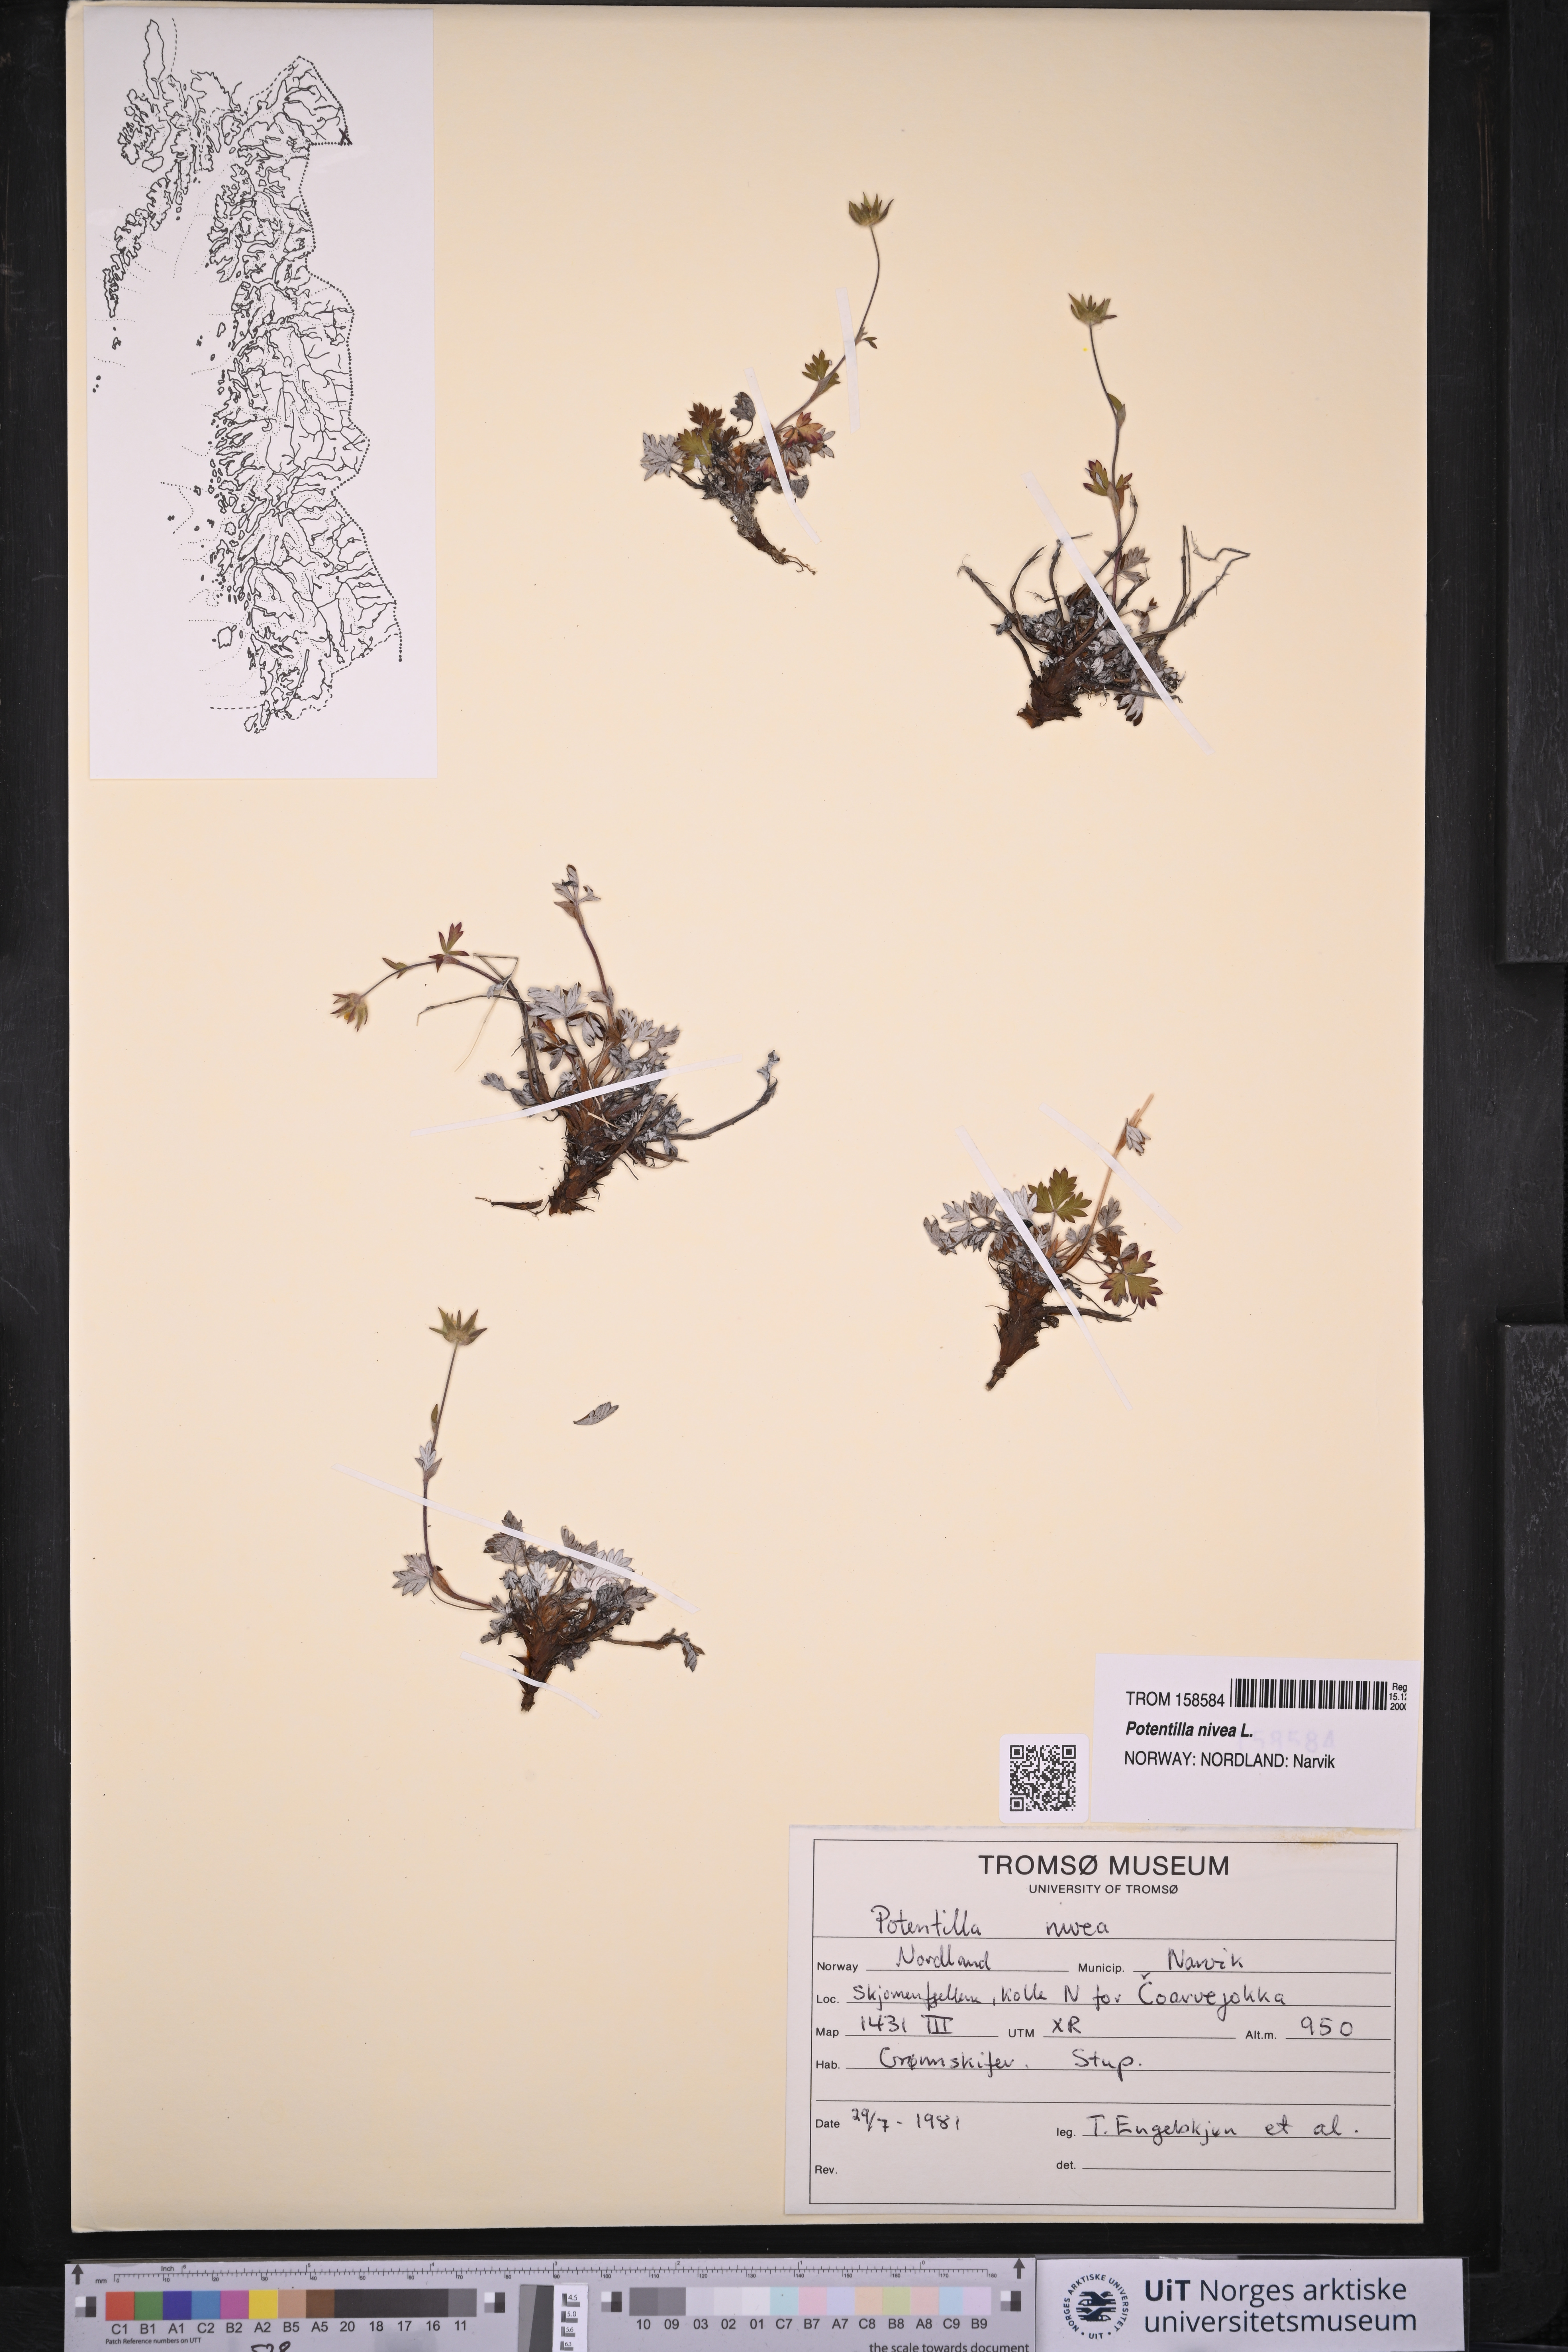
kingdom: Plantae
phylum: Tracheophyta
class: Magnoliopsida
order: Rosales
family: Rosaceae
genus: Potentilla
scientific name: Potentilla arenosa
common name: Bluff cinquefoil
